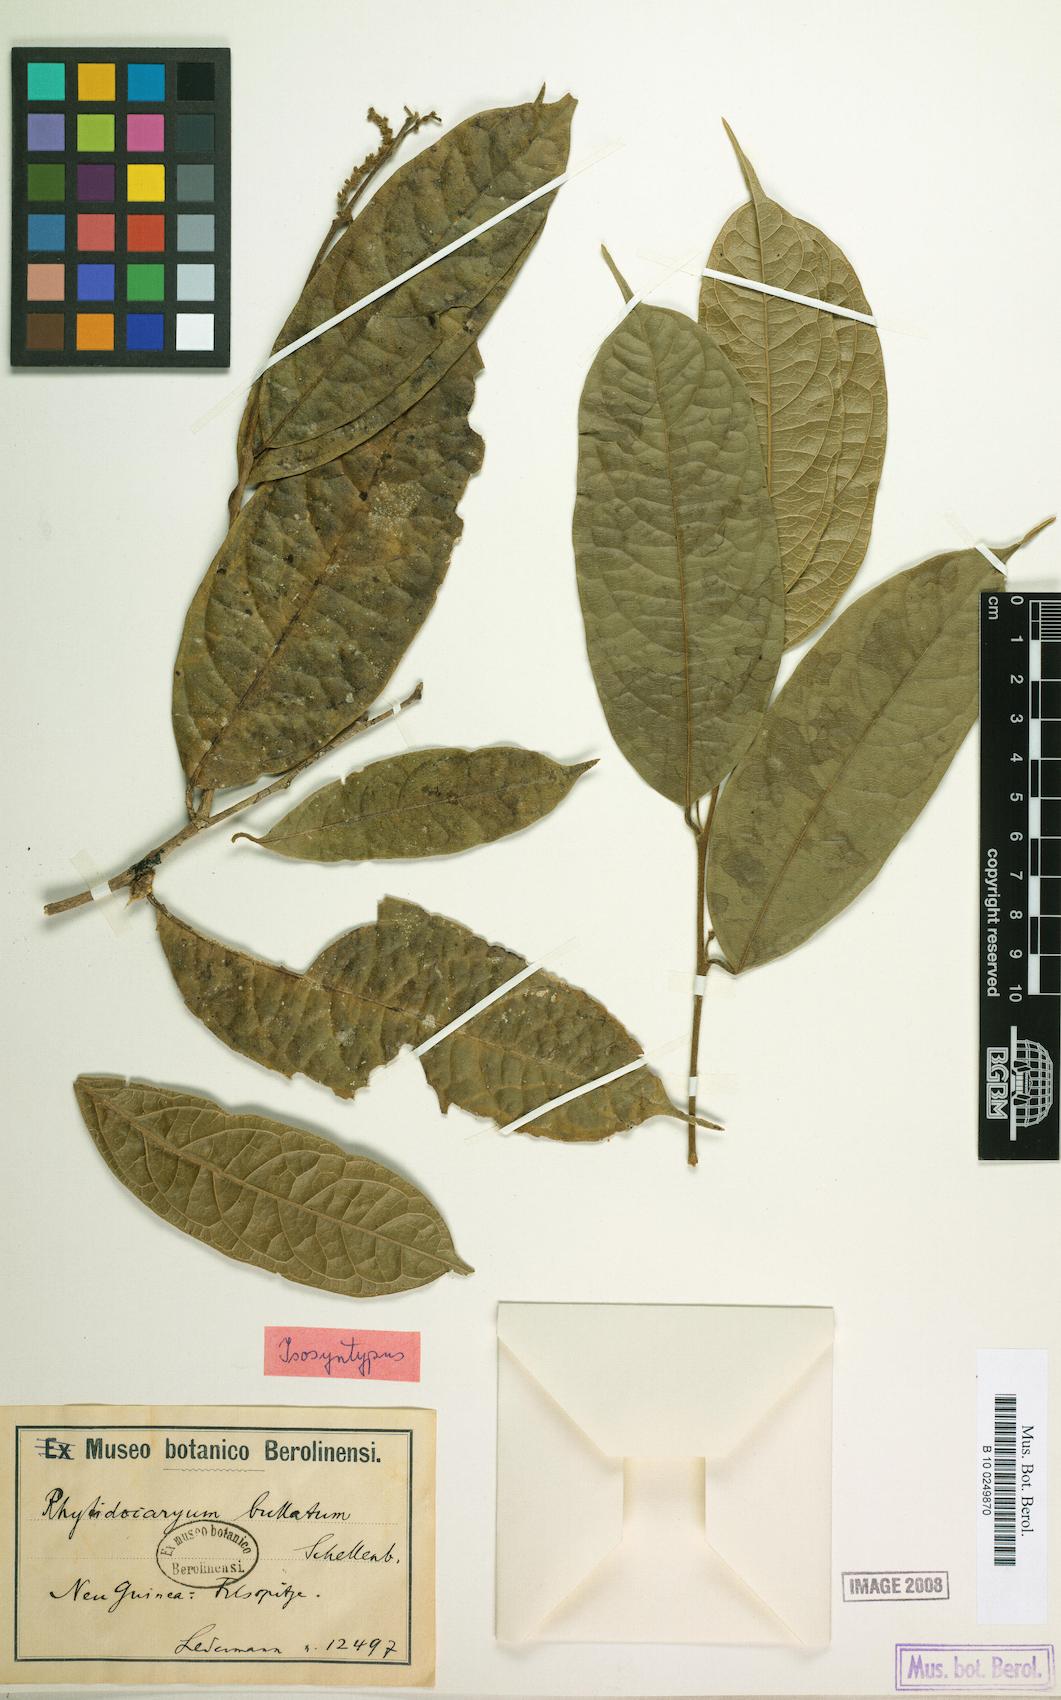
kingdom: Plantae
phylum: Tracheophyta
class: Magnoliopsida
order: Icacinales
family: Icacinaceae
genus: Ryticaryum
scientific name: Ryticaryum Rhyticaryum longifolium
